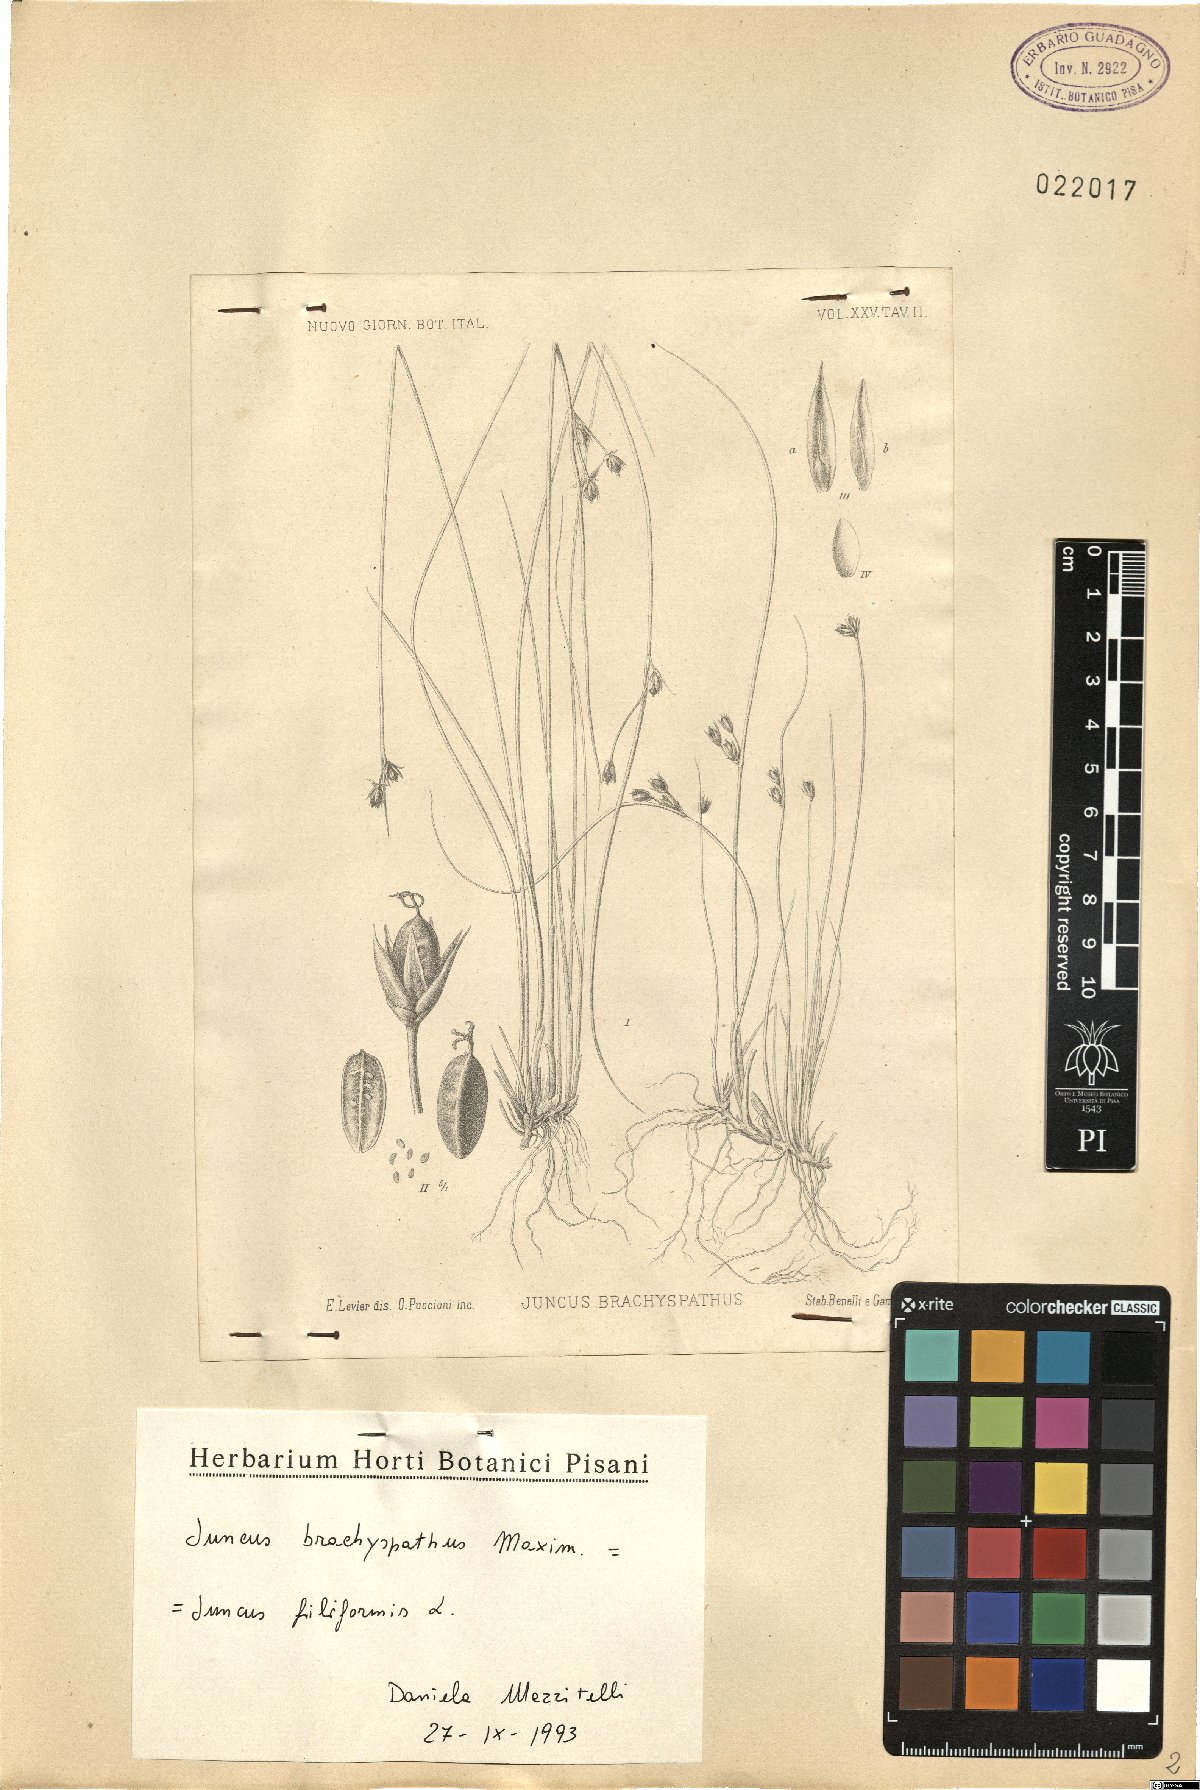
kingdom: Plantae
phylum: Tracheophyta
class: Liliopsida
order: Poales
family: Juncaceae
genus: Juncus
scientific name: Juncus filiformis
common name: Thread rush
